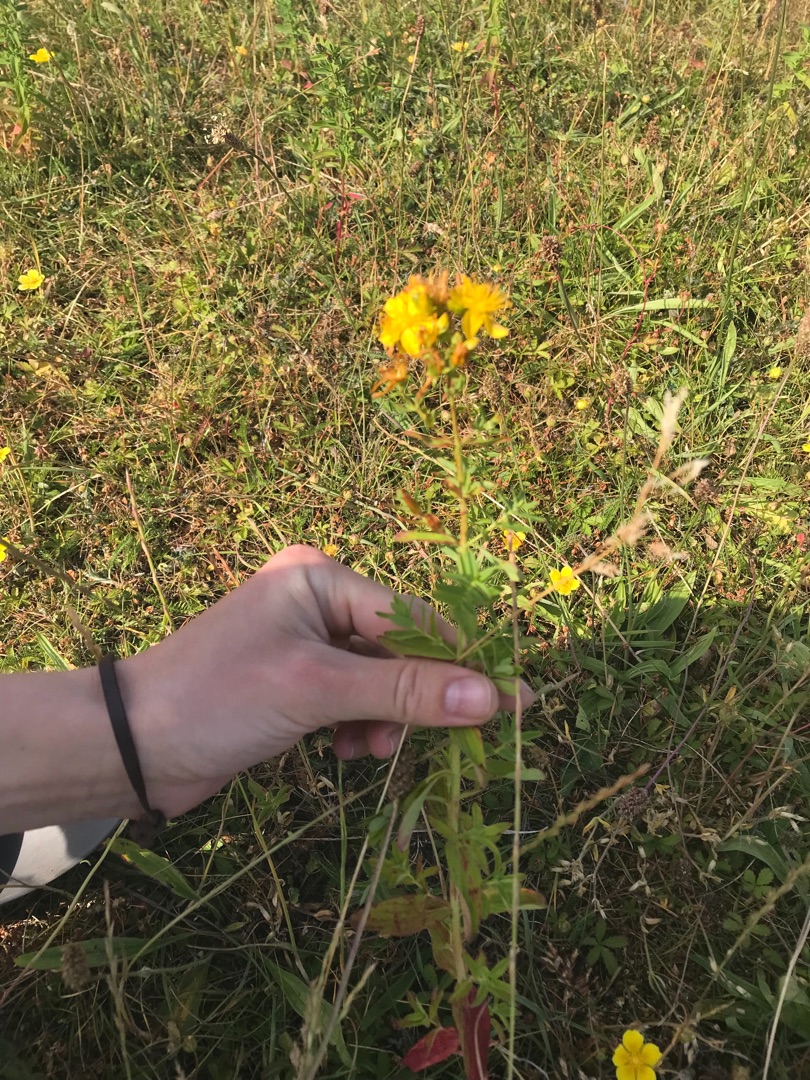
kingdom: Plantae
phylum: Tracheophyta
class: Magnoliopsida
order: Malpighiales
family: Hypericaceae
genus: Hypericum
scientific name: Hypericum perforatum
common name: Prikbladet perikon
